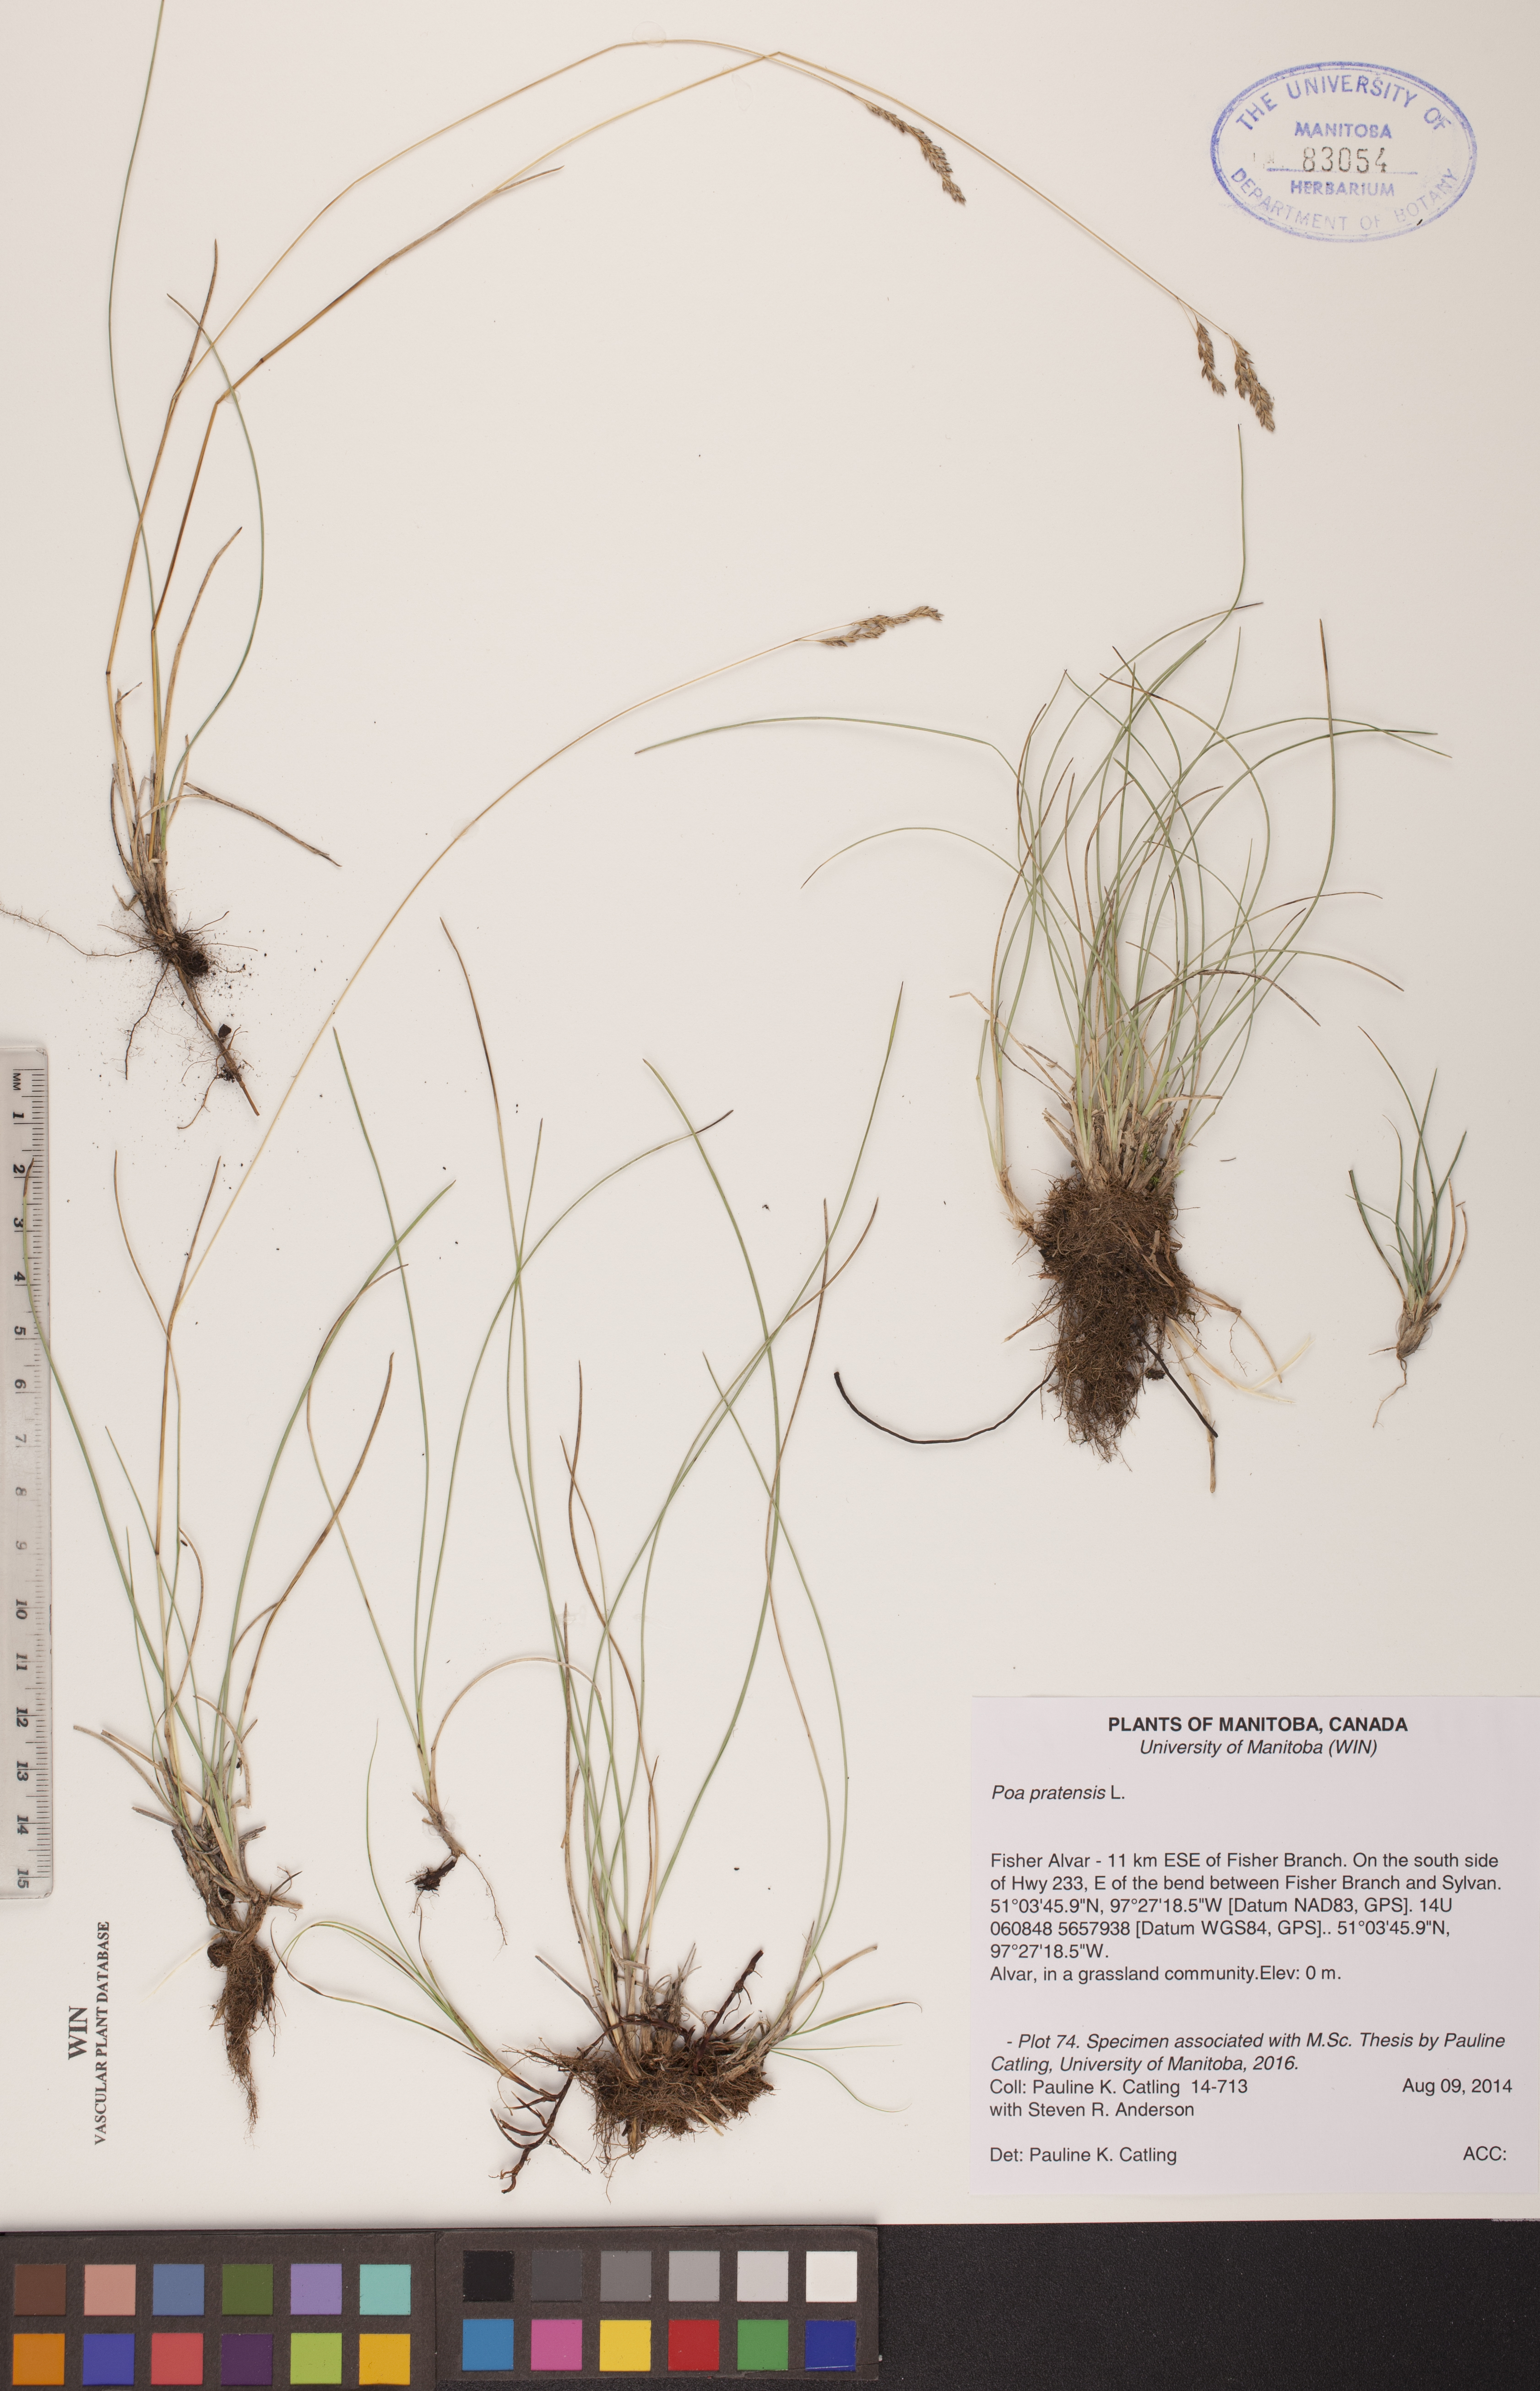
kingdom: Plantae
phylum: Tracheophyta
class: Liliopsida
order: Poales
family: Poaceae
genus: Poa
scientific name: Poa pratensis
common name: Kentucky bluegrass
